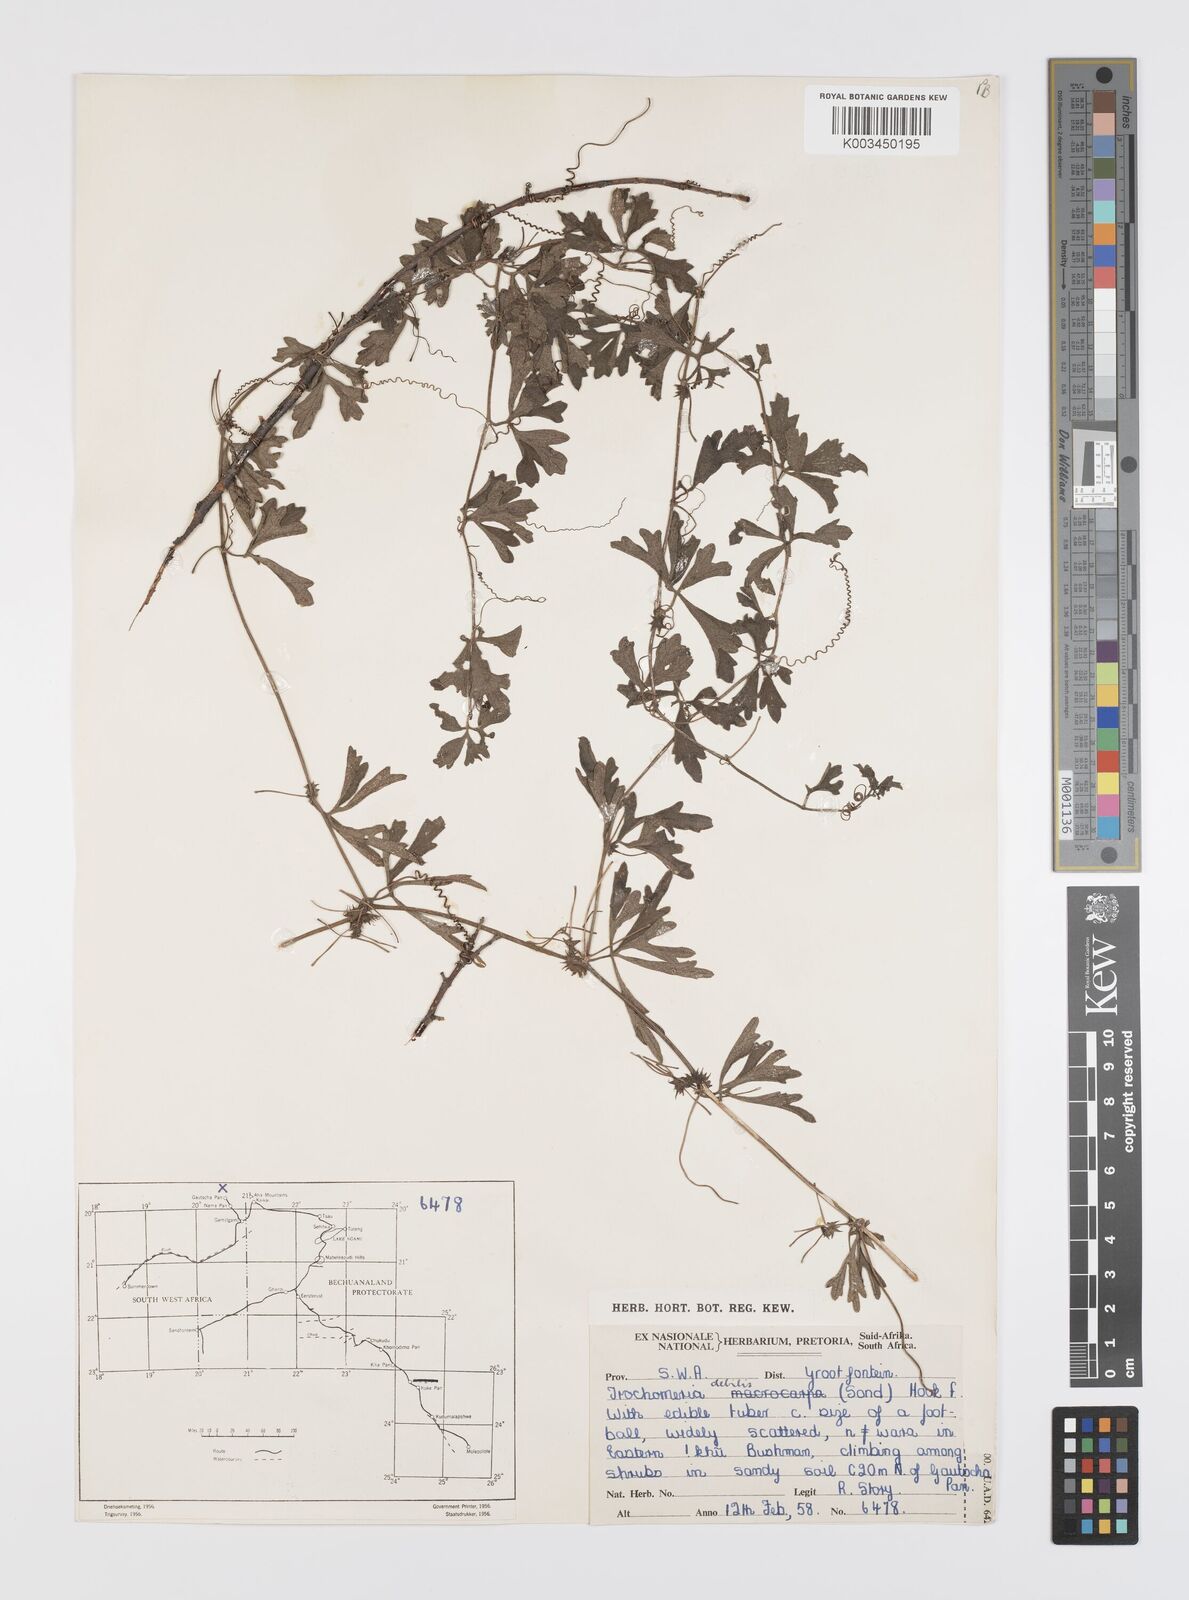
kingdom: Plantae
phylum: Tracheophyta
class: Magnoliopsida
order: Cucurbitales
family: Cucurbitaceae
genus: Trochomeria
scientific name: Trochomeria debilis
